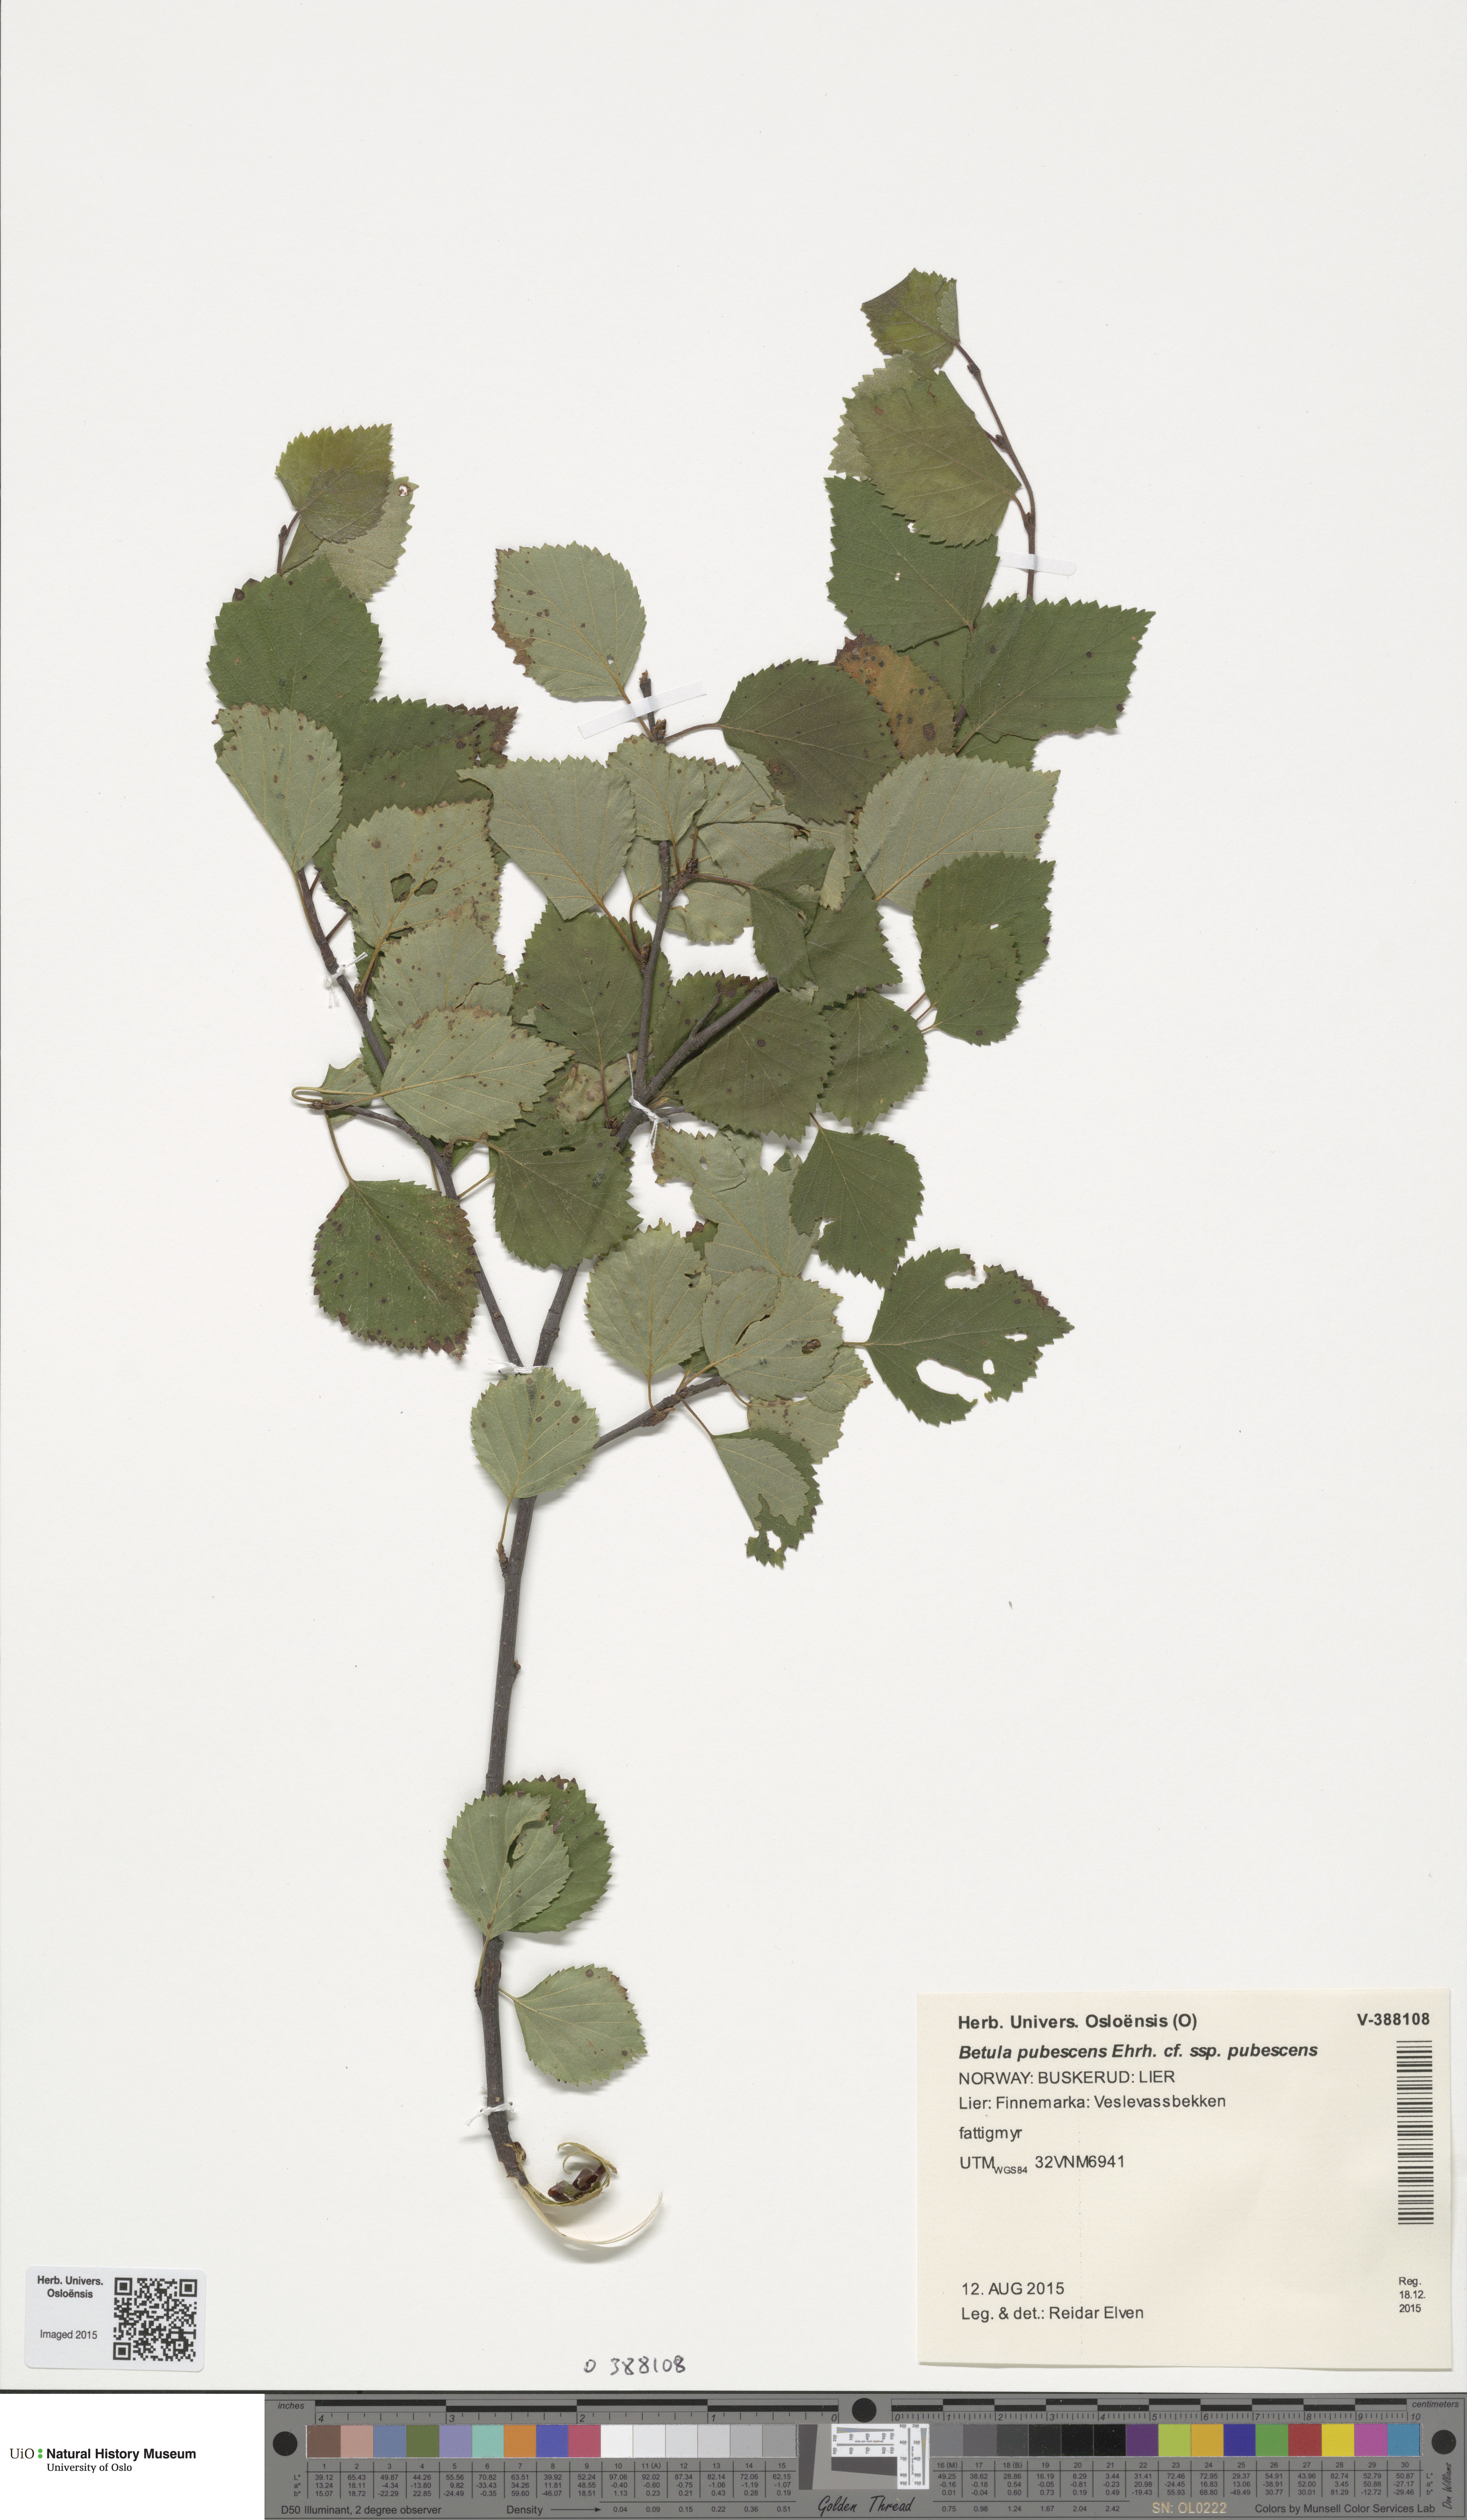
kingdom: Plantae
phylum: Tracheophyta
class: Magnoliopsida
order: Fagales
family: Betulaceae
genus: Betula
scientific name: Betula pubescens
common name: Downy birch
